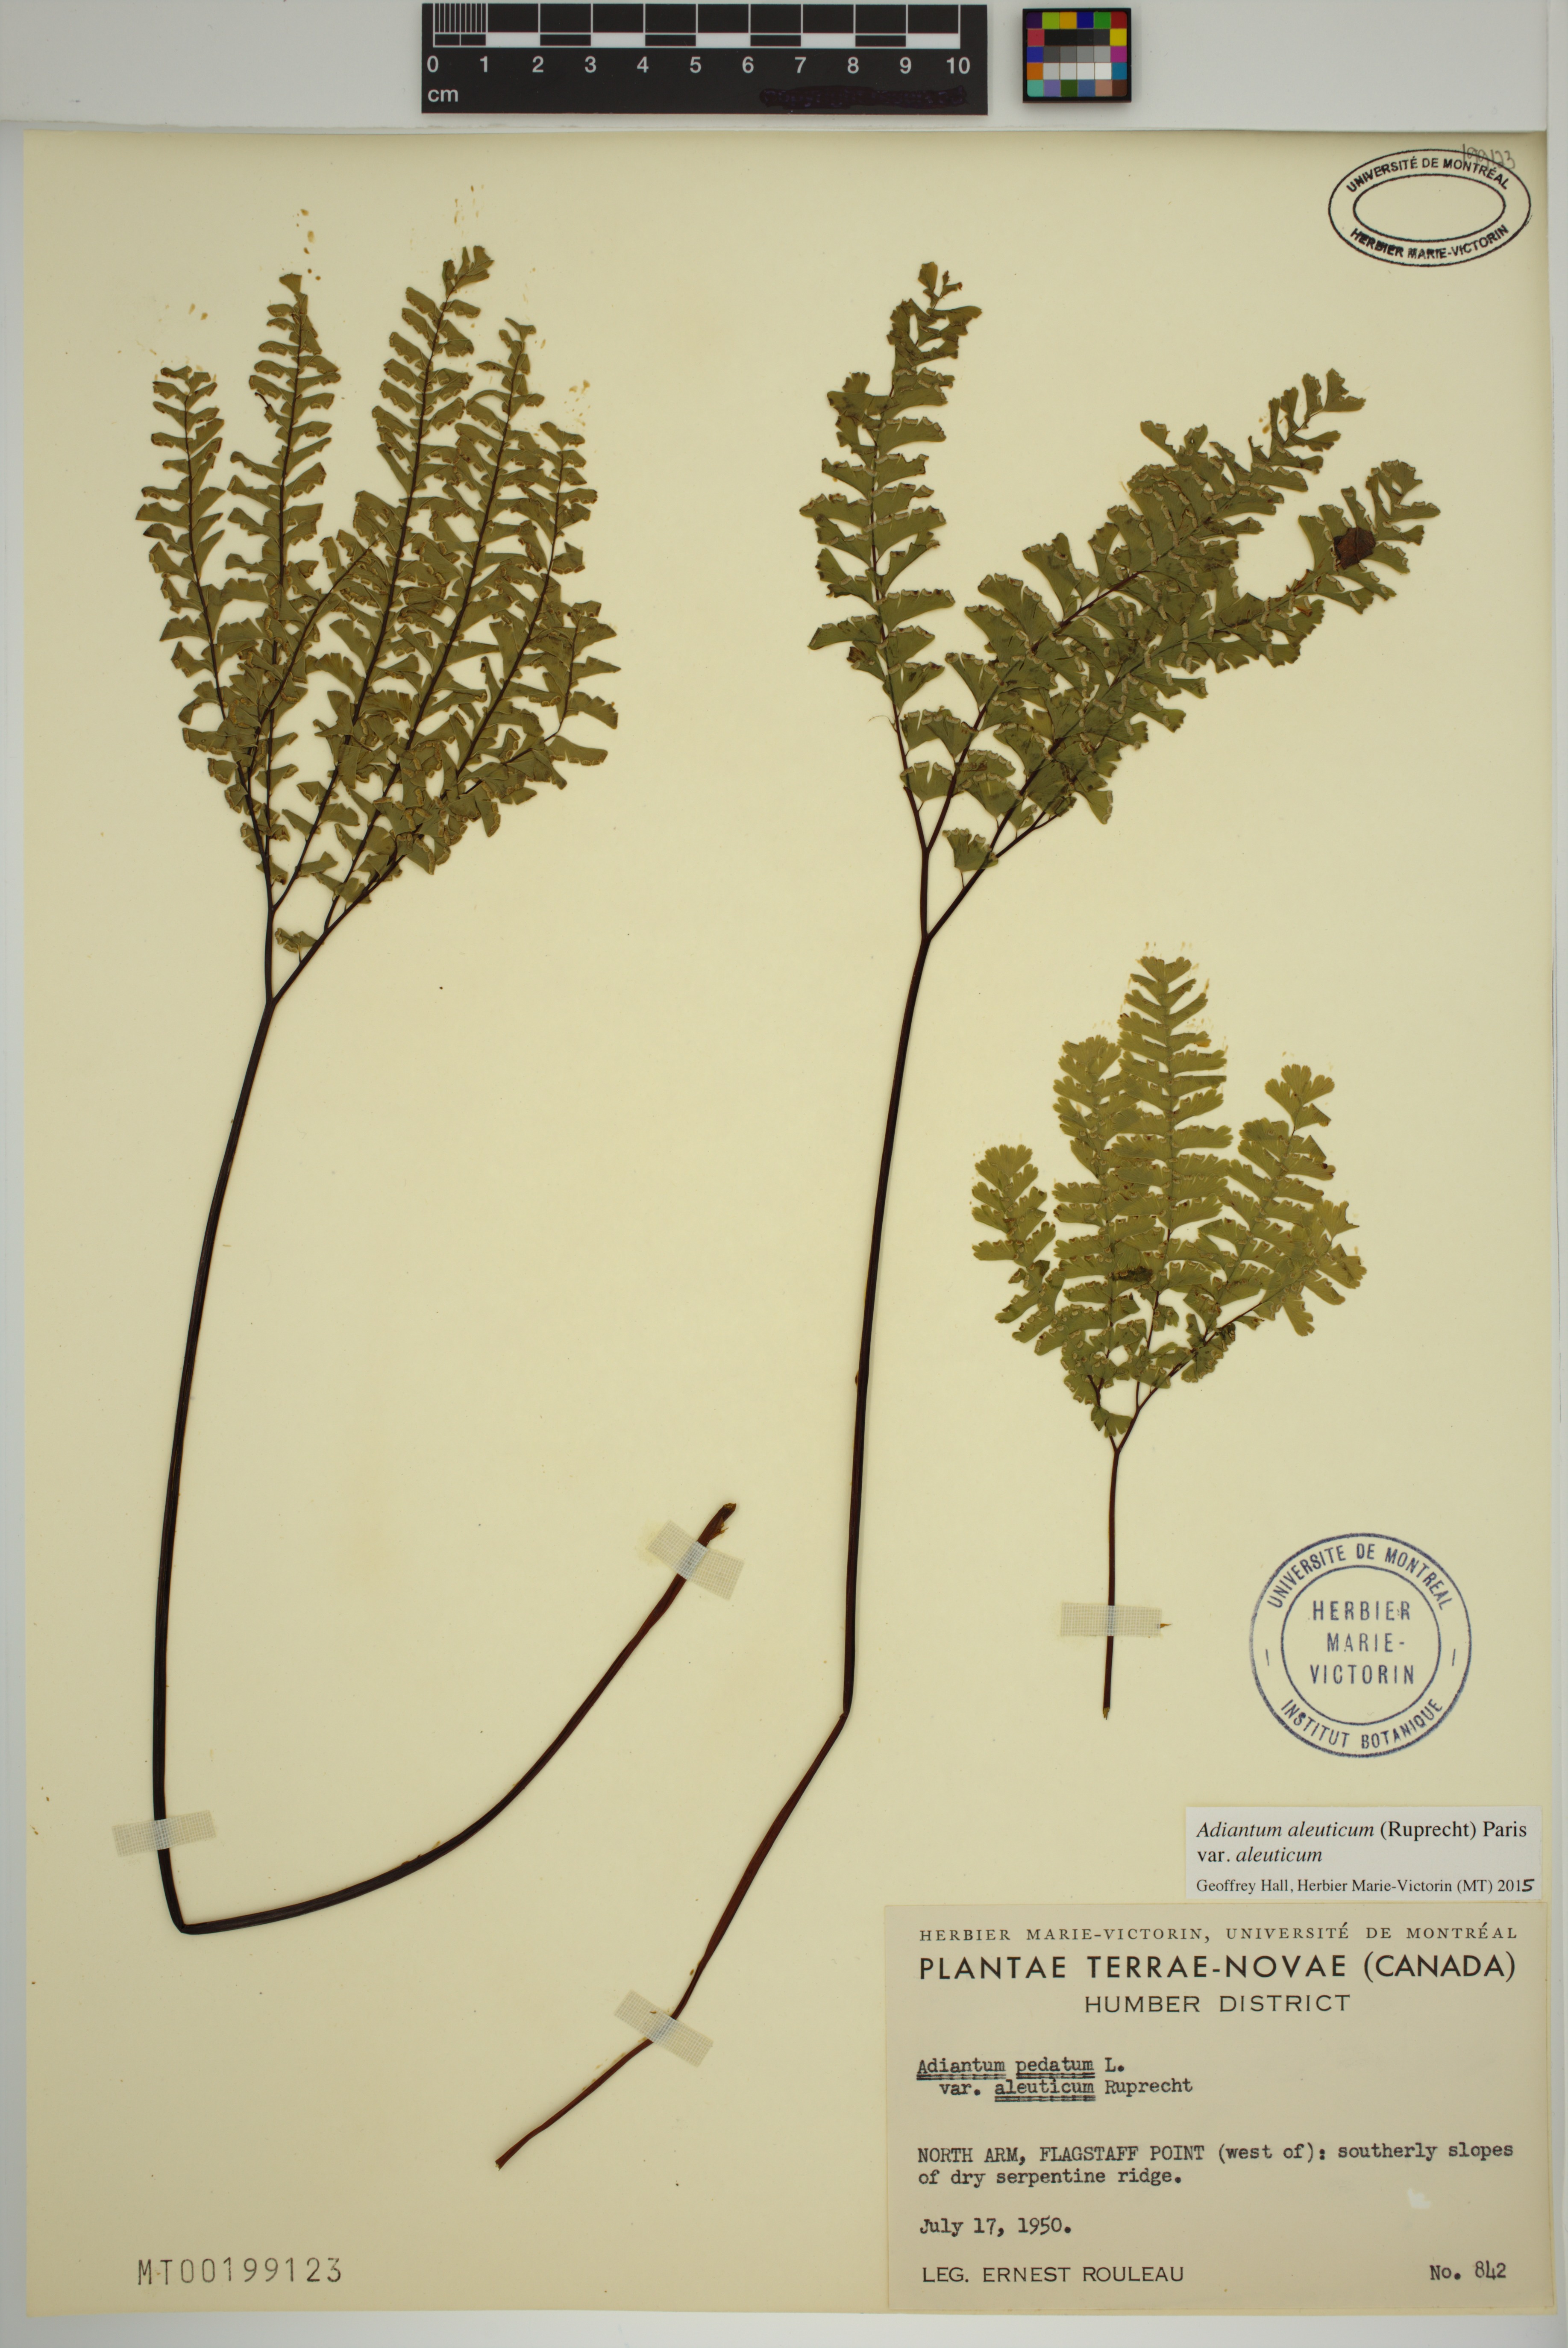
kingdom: Plantae
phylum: Tracheophyta
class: Polypodiopsida
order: Polypodiales
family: Pteridaceae
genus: Adiantum
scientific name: Adiantum aleuticum
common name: Aleutian maidenhair fern
